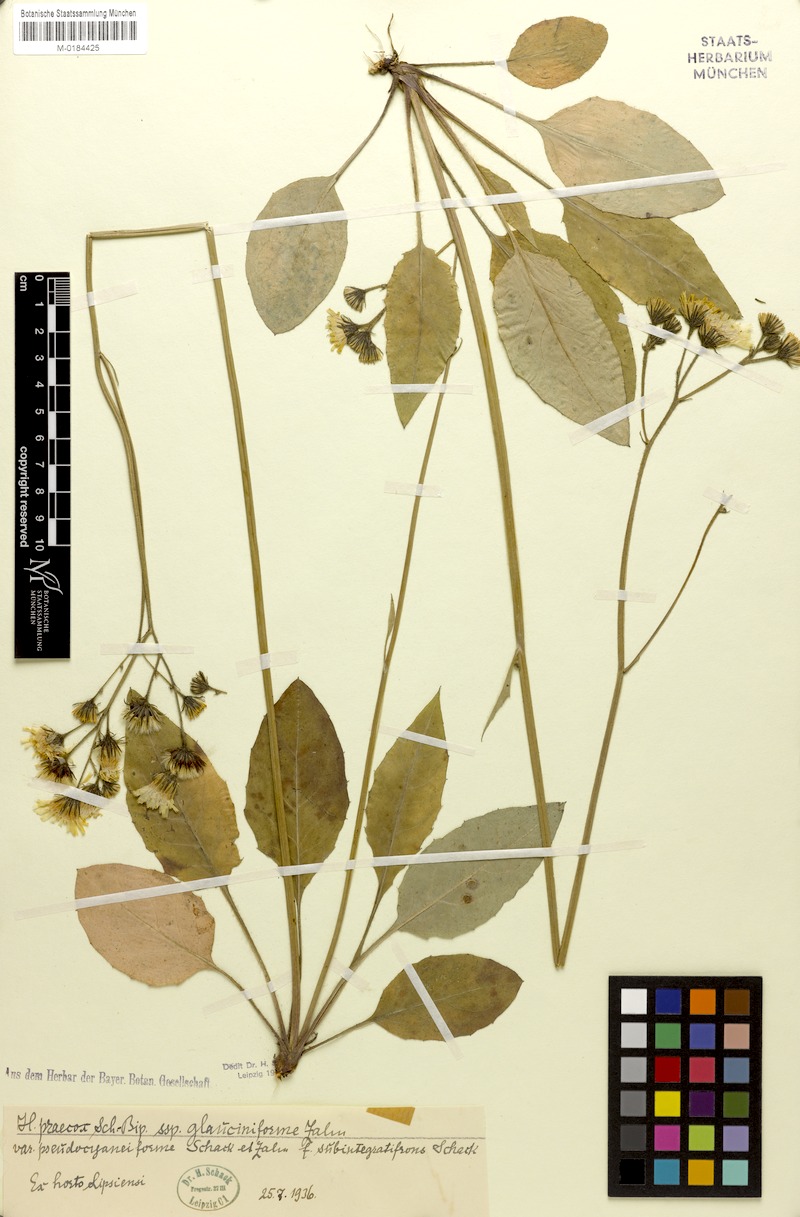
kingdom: Plantae
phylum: Tracheophyta
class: Magnoliopsida
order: Asterales
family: Asteraceae
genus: Hieracium
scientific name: Hieracium glaucinum
